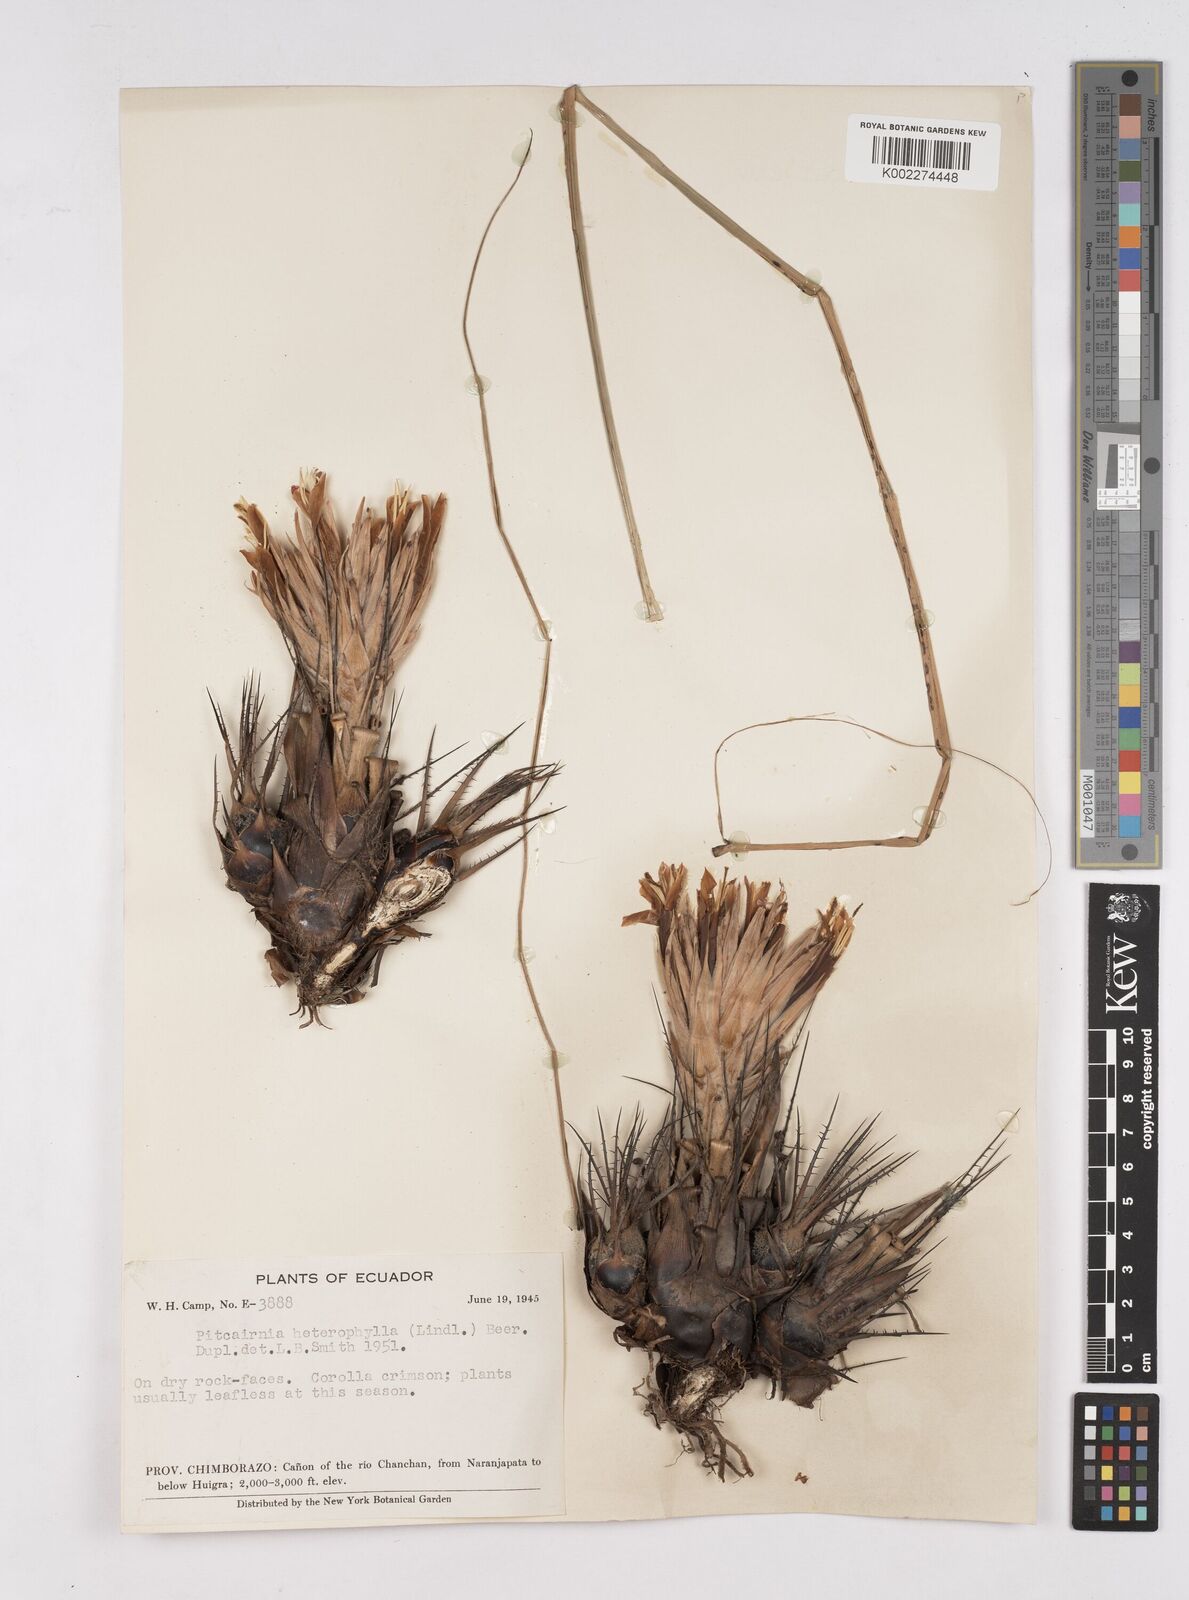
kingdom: Plantae
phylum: Tracheophyta
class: Liliopsida
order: Poales
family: Bromeliaceae
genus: Pitcairnia
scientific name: Pitcairnia heterophylla
